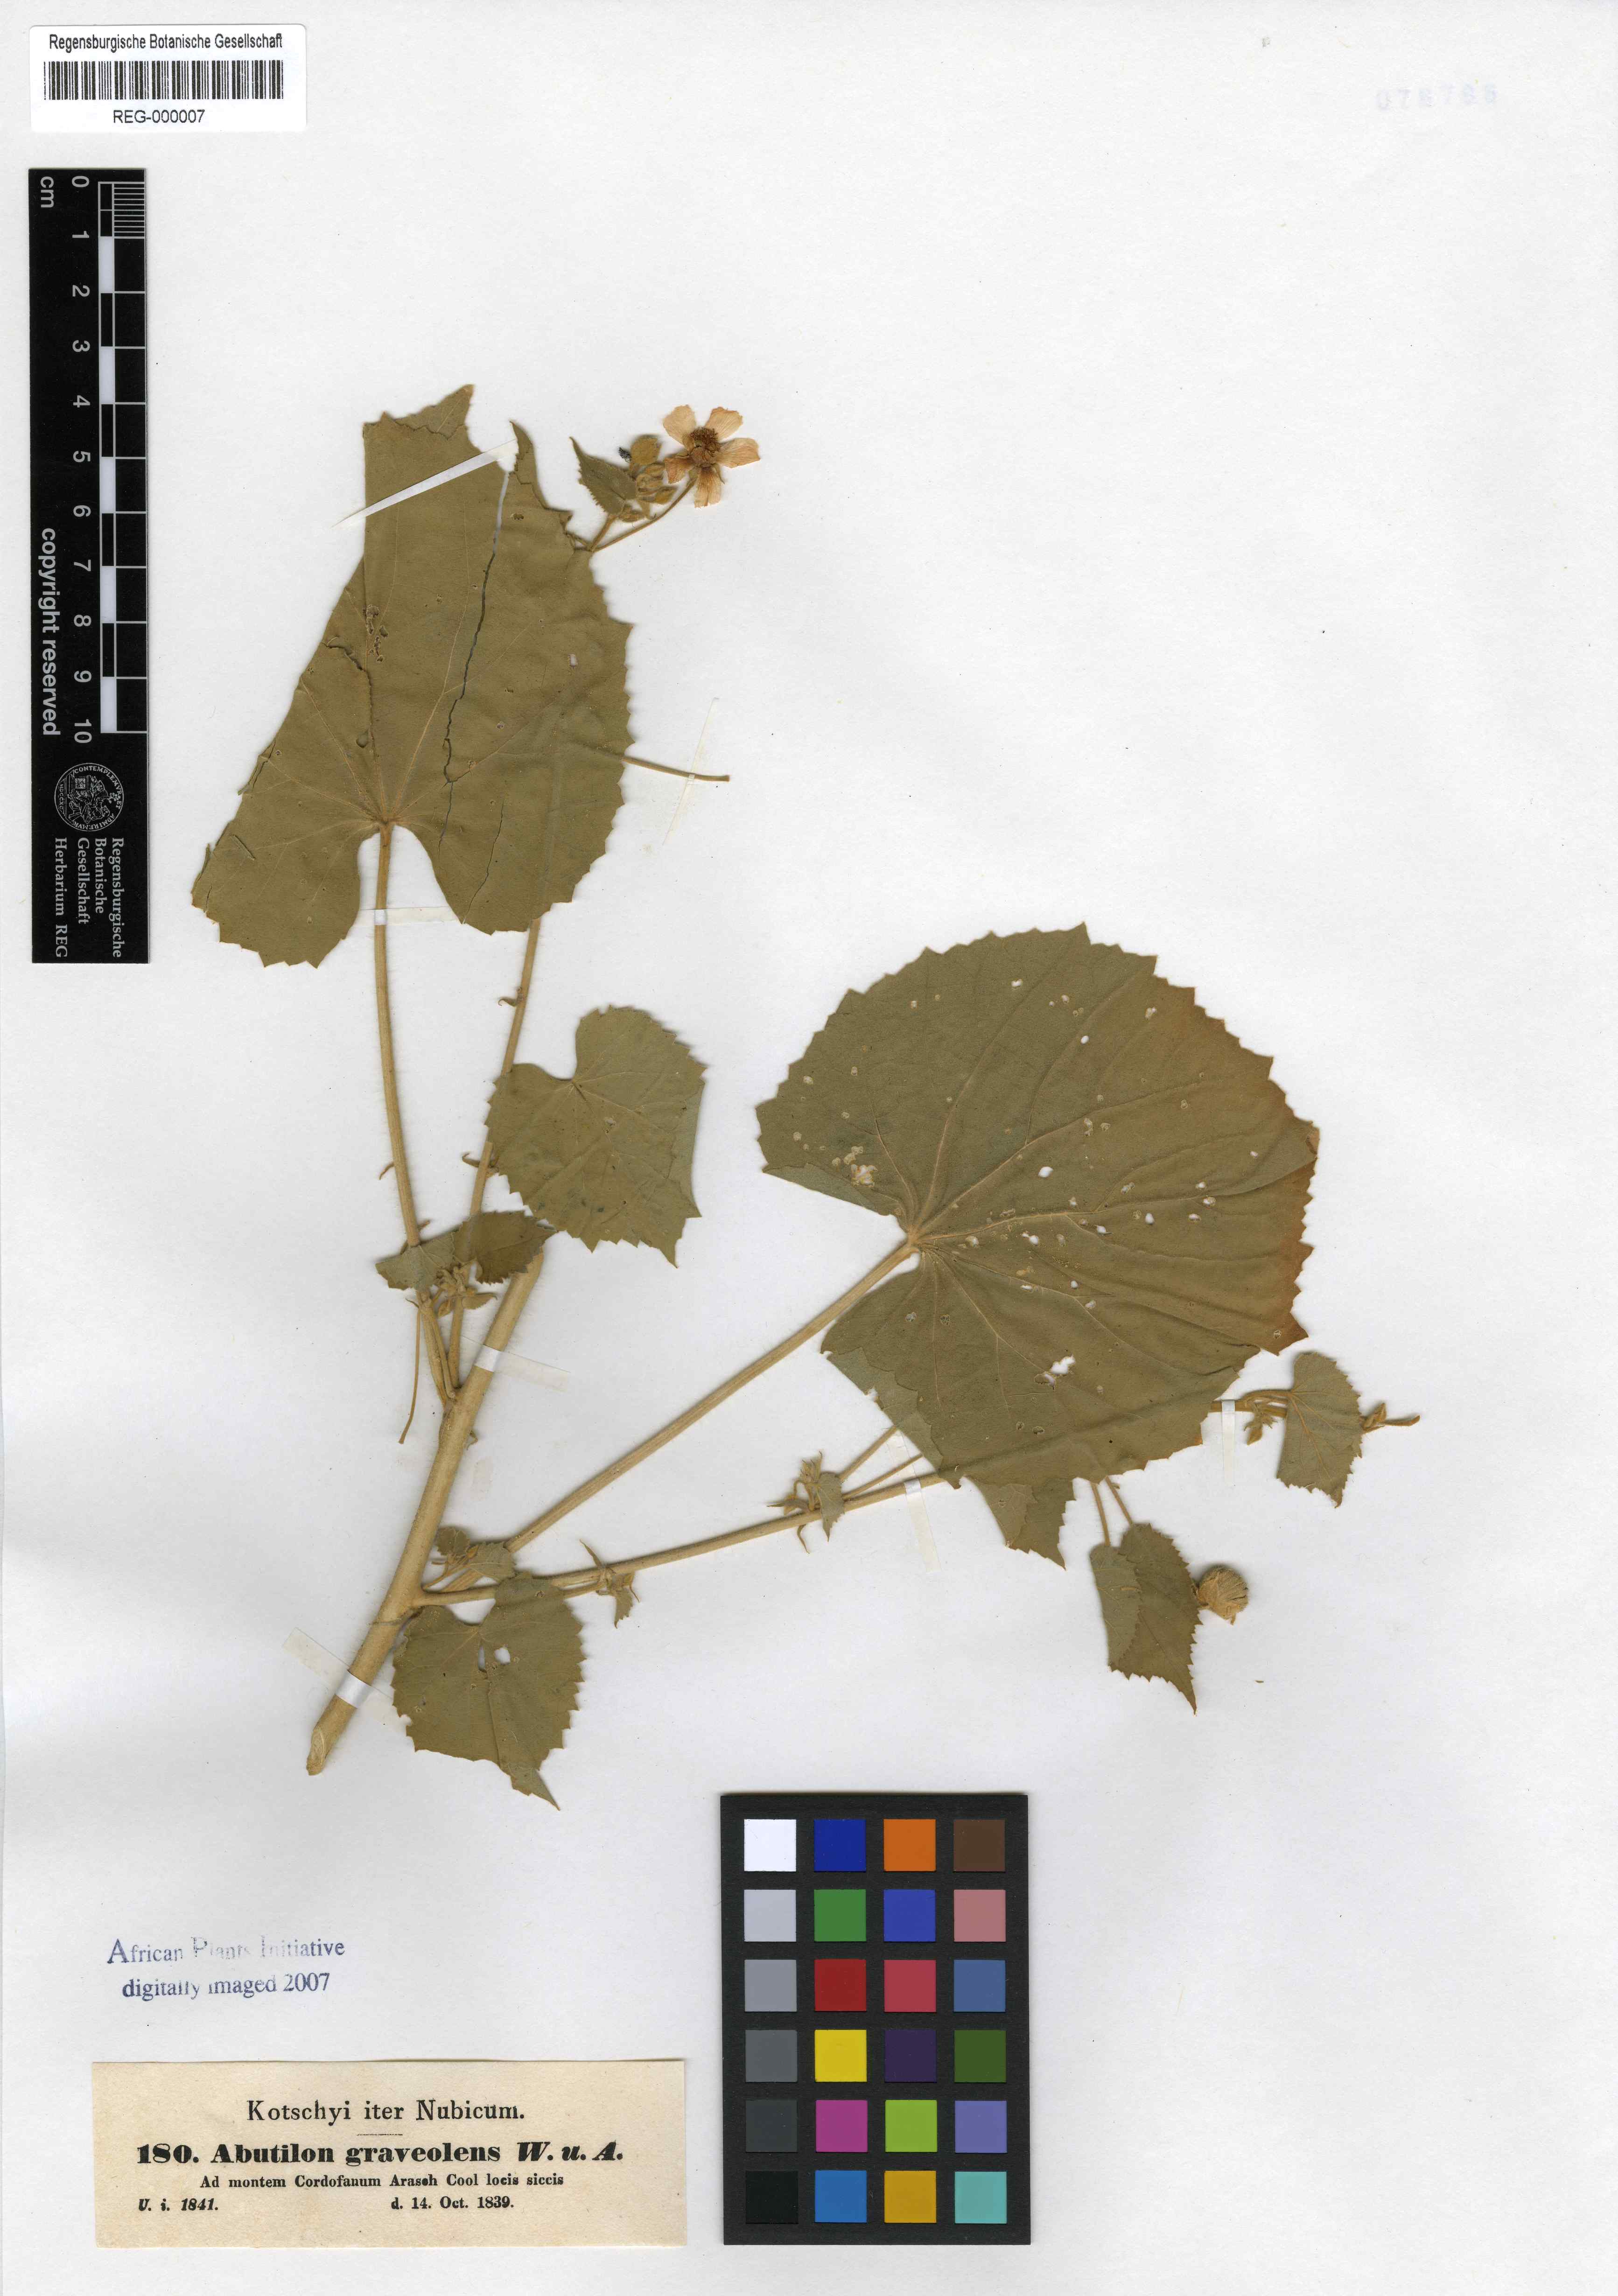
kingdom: Plantae
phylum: Tracheophyta
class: Magnoliopsida
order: Malvales
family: Malvaceae
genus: Abutilon
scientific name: Abutilon hirtum
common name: Florida keys indian mallow
